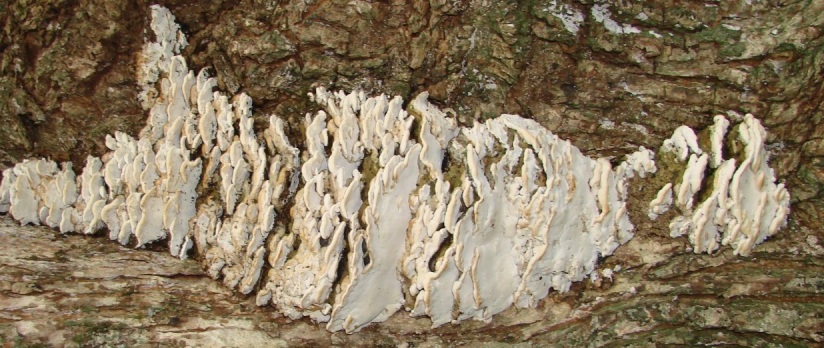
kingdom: Fungi
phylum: Basidiomycota
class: Agaricomycetes
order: Hymenochaetales
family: Oxyporaceae
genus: Oxyporus
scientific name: Oxyporus populinus
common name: sammenvokset trylleporesvamp
